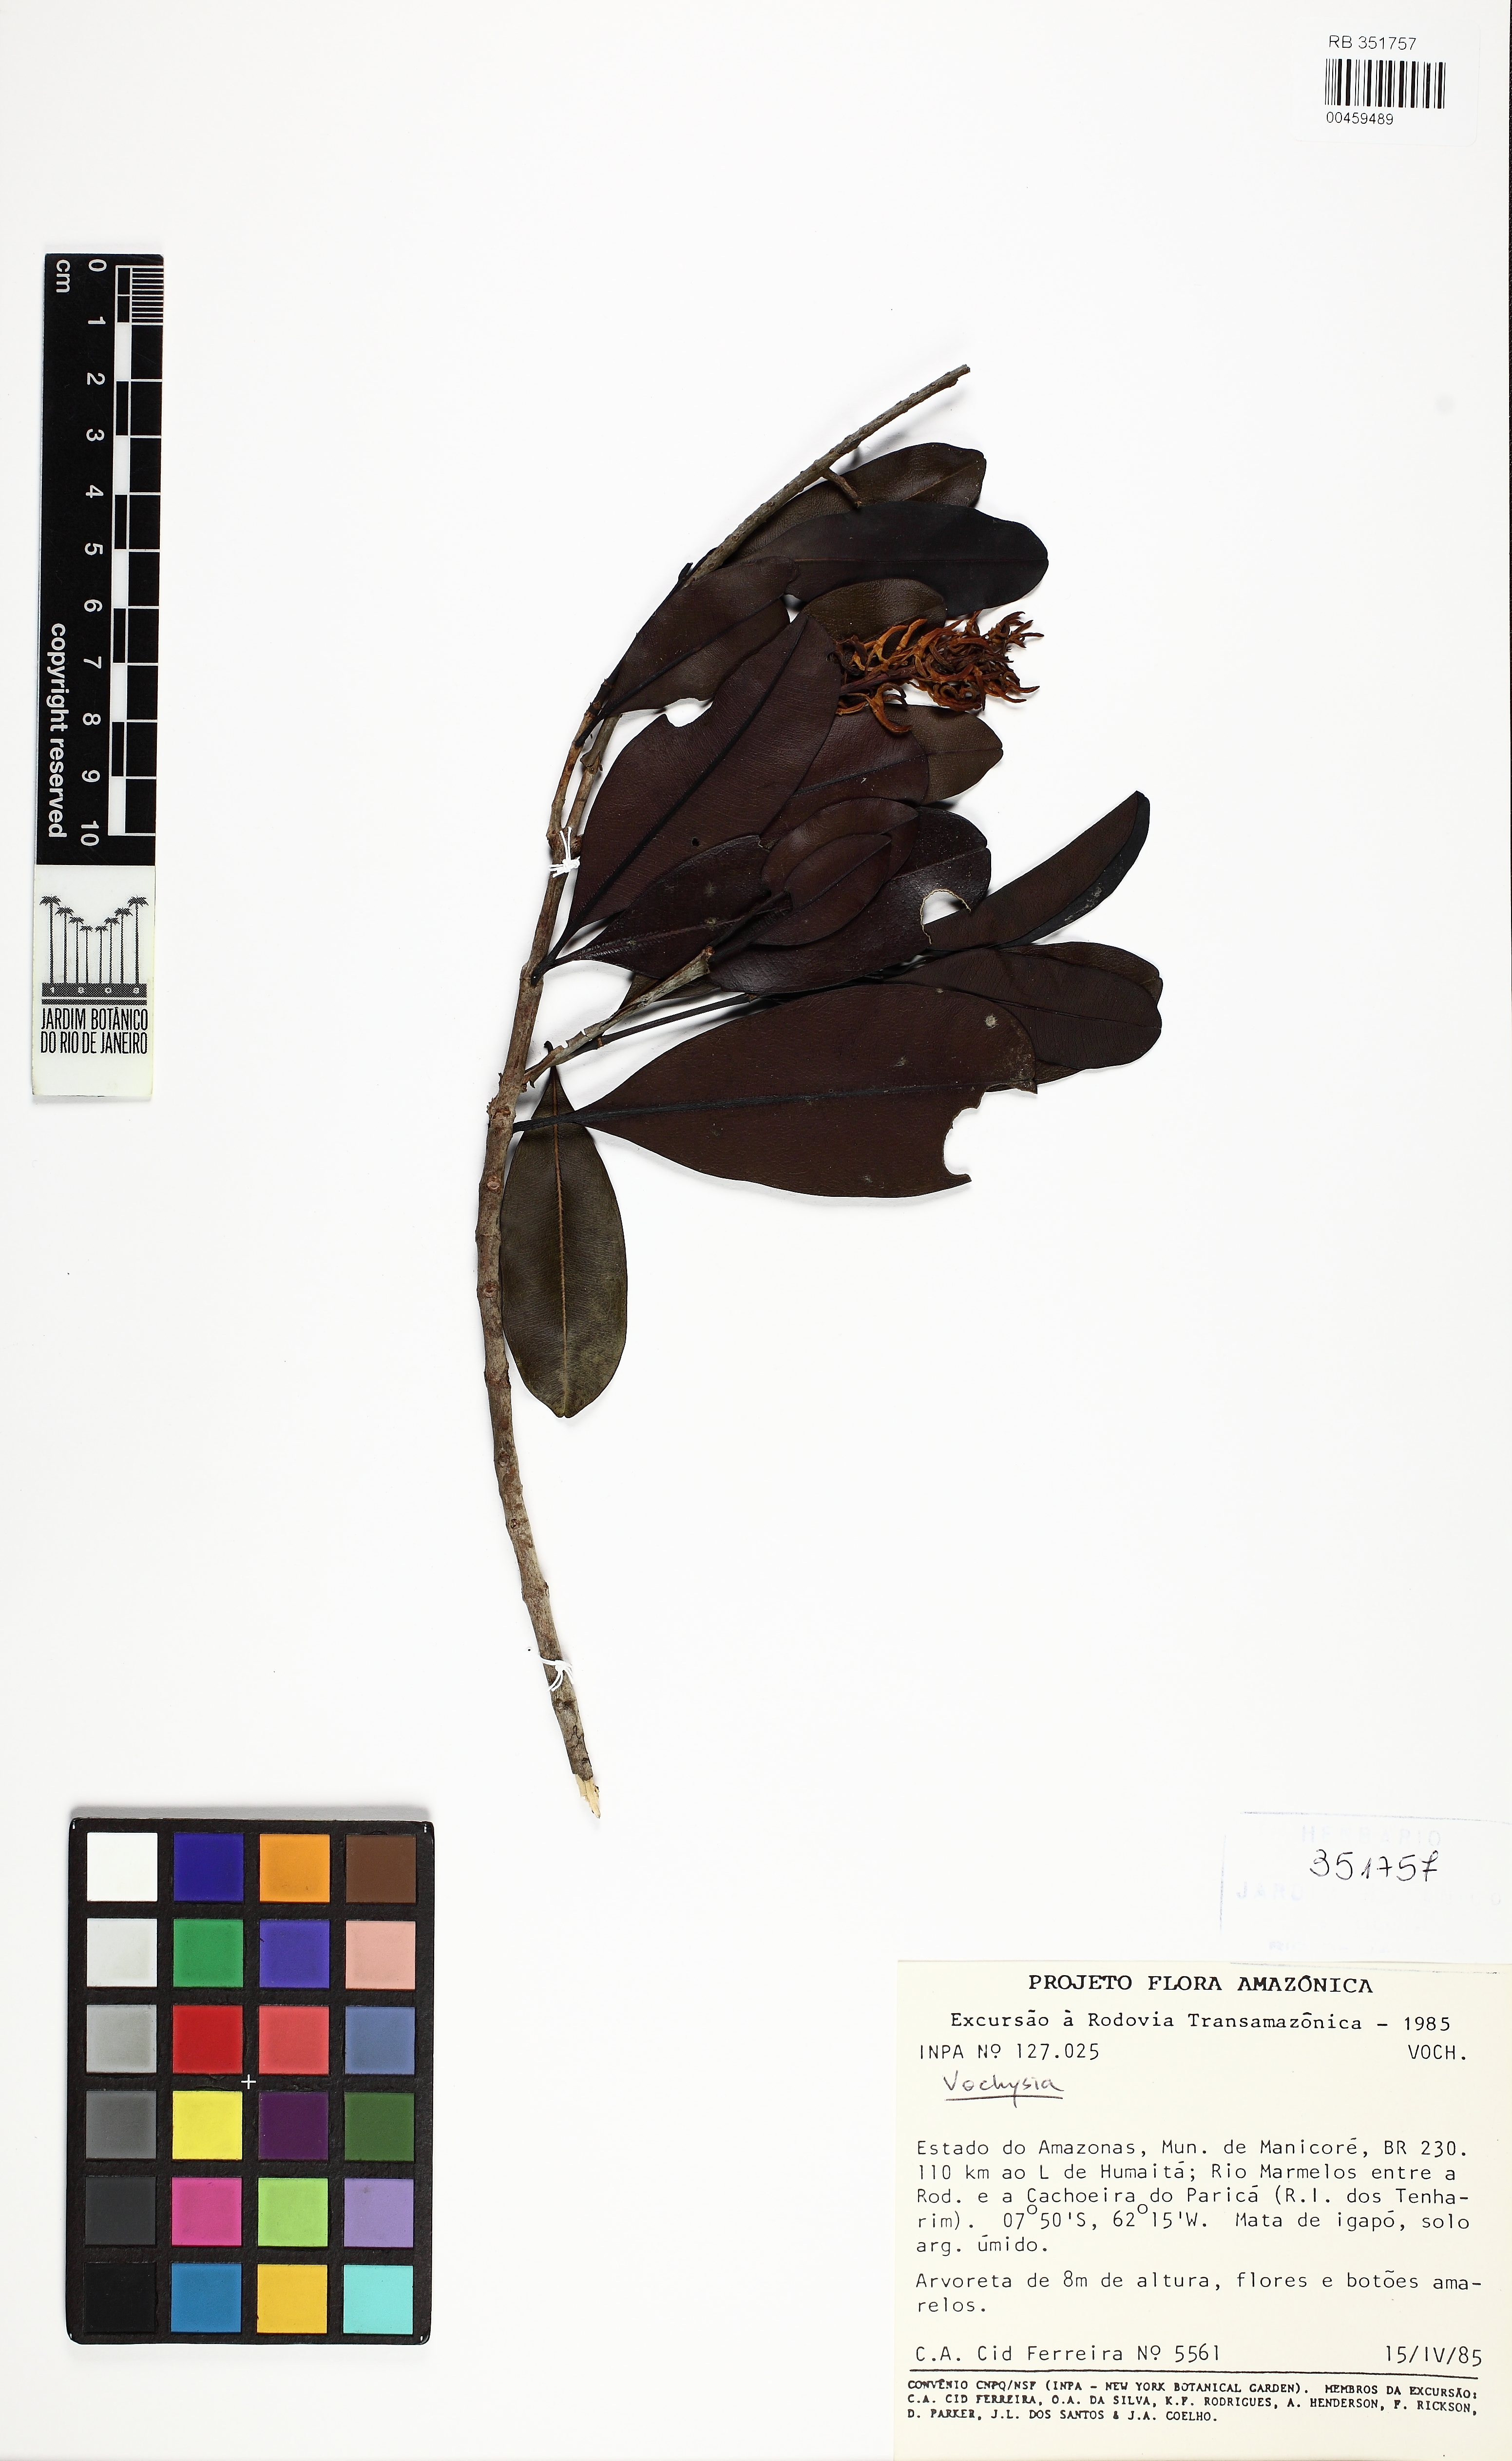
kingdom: Plantae
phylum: Tracheophyta
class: Magnoliopsida
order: Myrtales
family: Vochysiaceae
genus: Vochysia
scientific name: Vochysia
